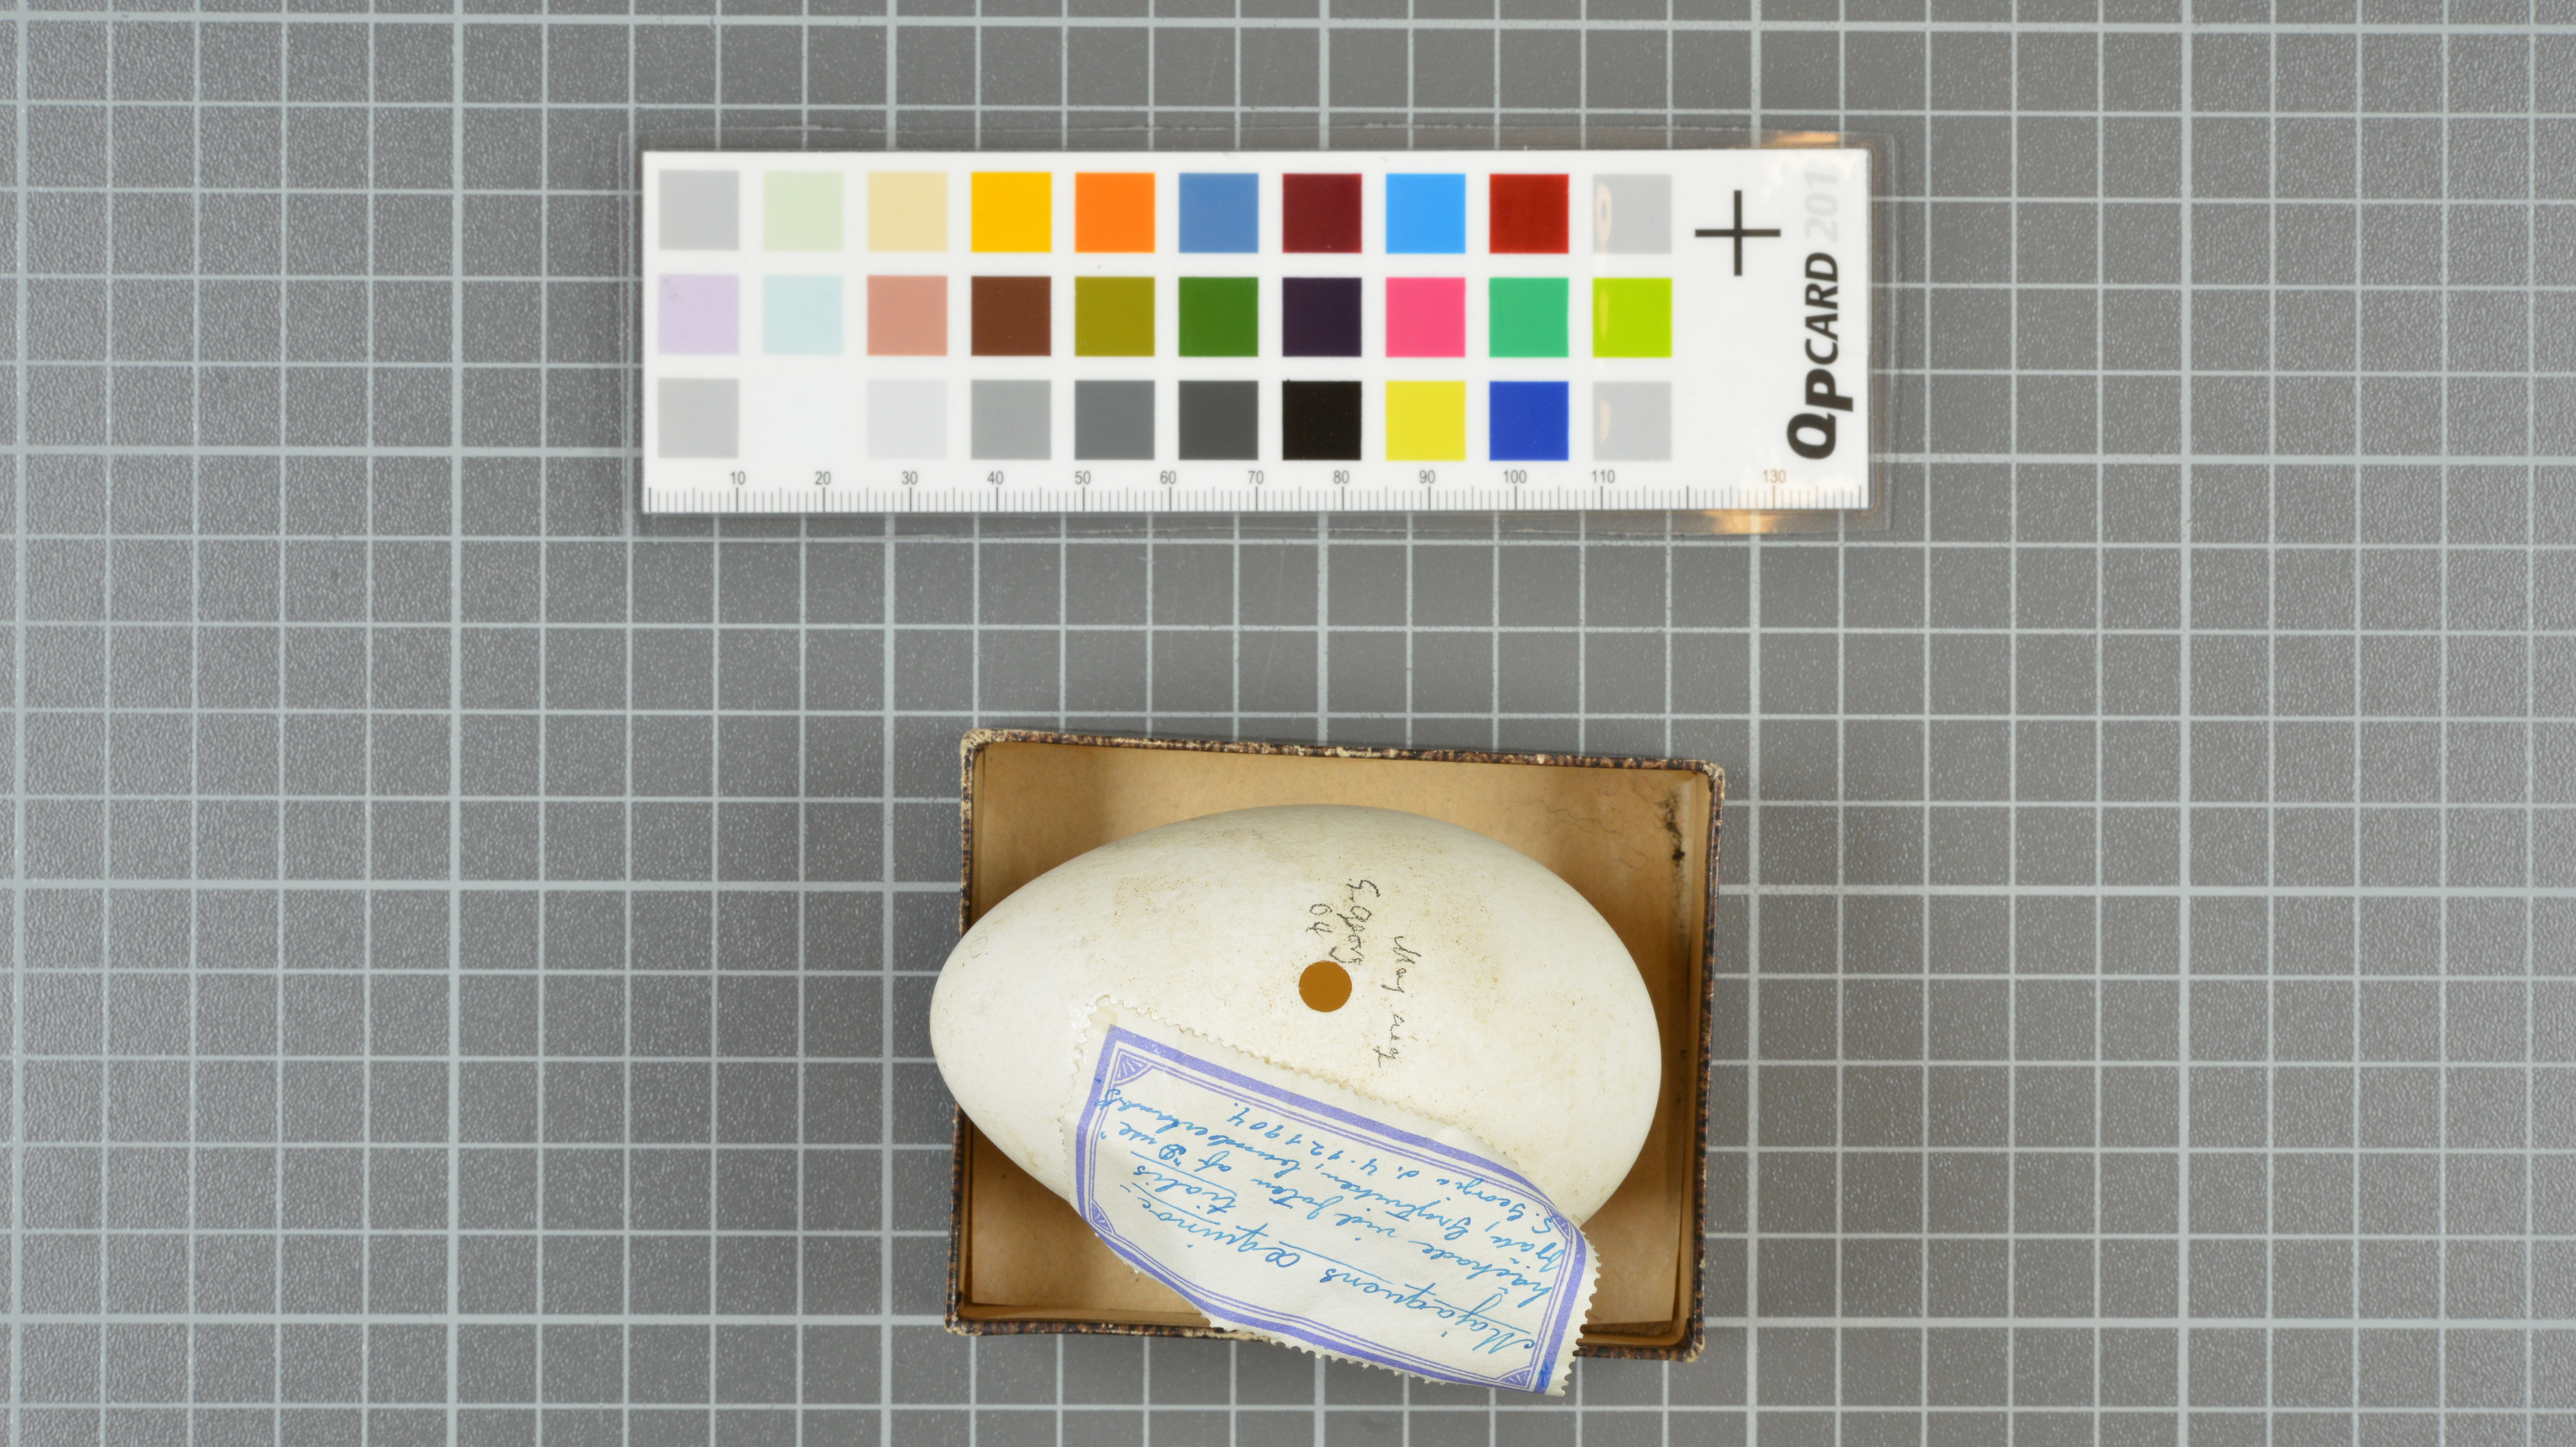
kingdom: Animalia
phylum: Chordata
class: Aves
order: Procellariiformes
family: Procellariidae
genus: Procellaria
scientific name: Procellaria aequinoctialis
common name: White-chinned petrel
